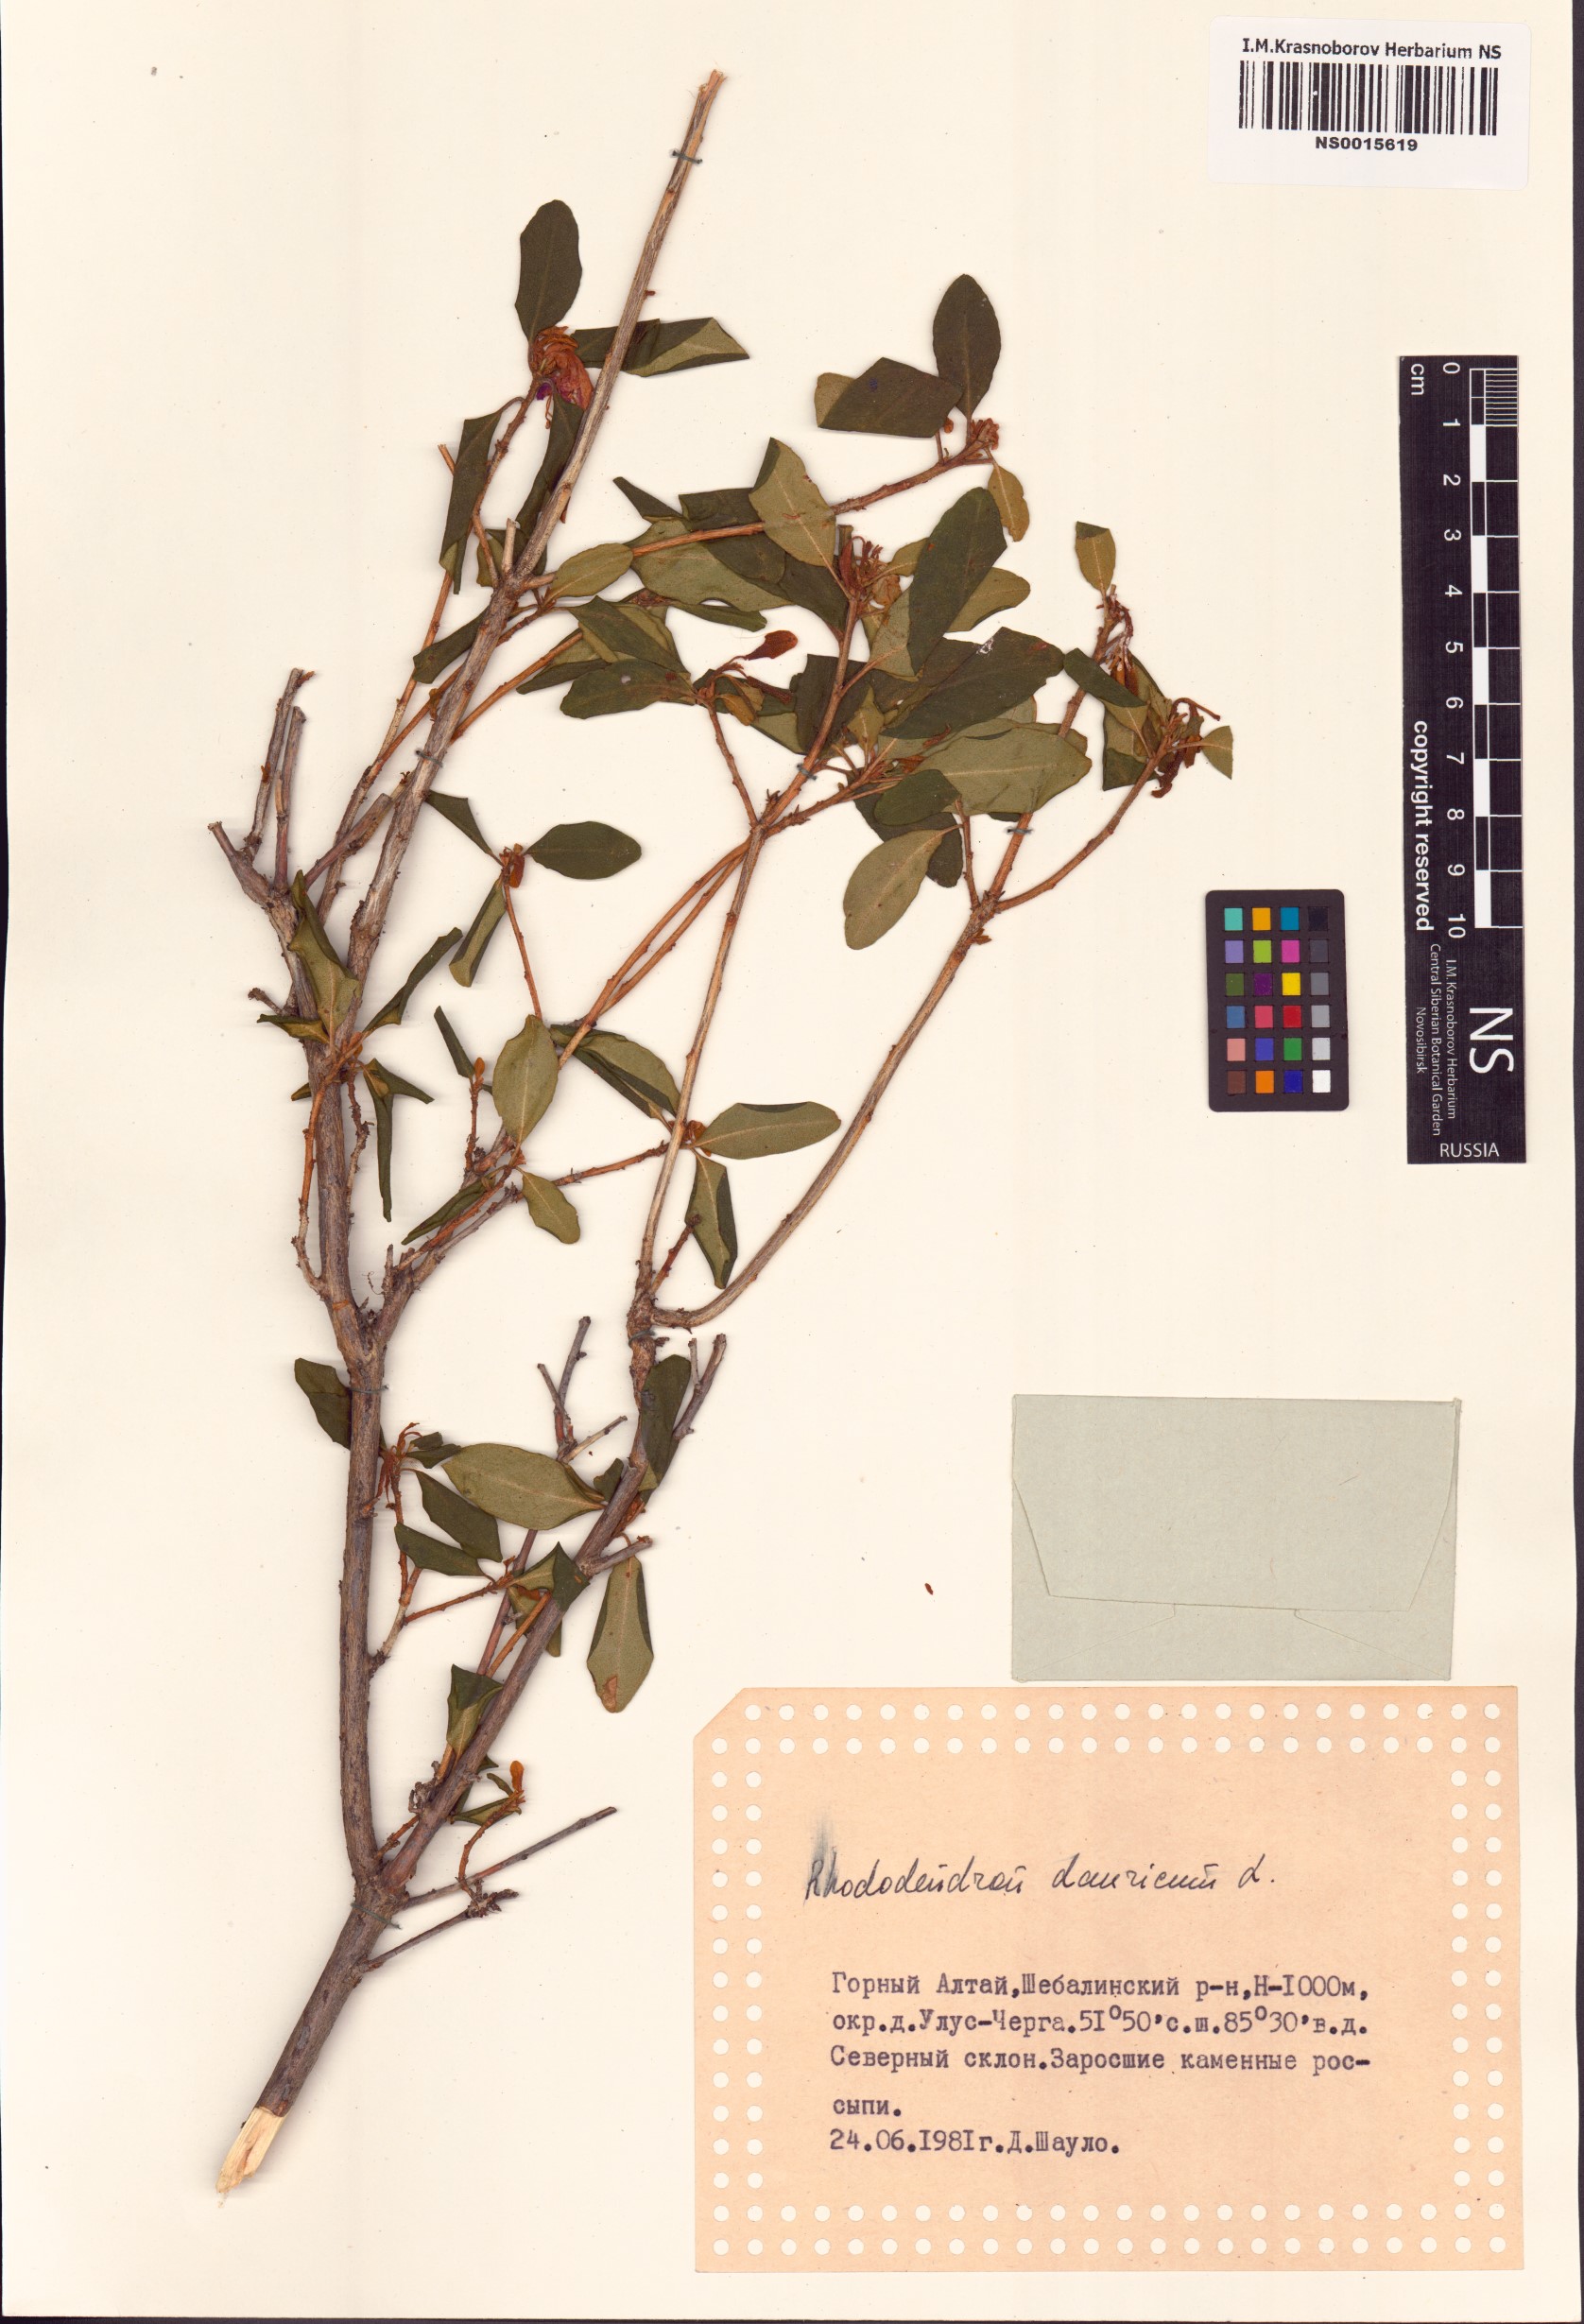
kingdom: Plantae
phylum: Tracheophyta
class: Magnoliopsida
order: Ericales
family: Ericaceae
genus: Rhododendron
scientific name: Rhododendron dauricum
